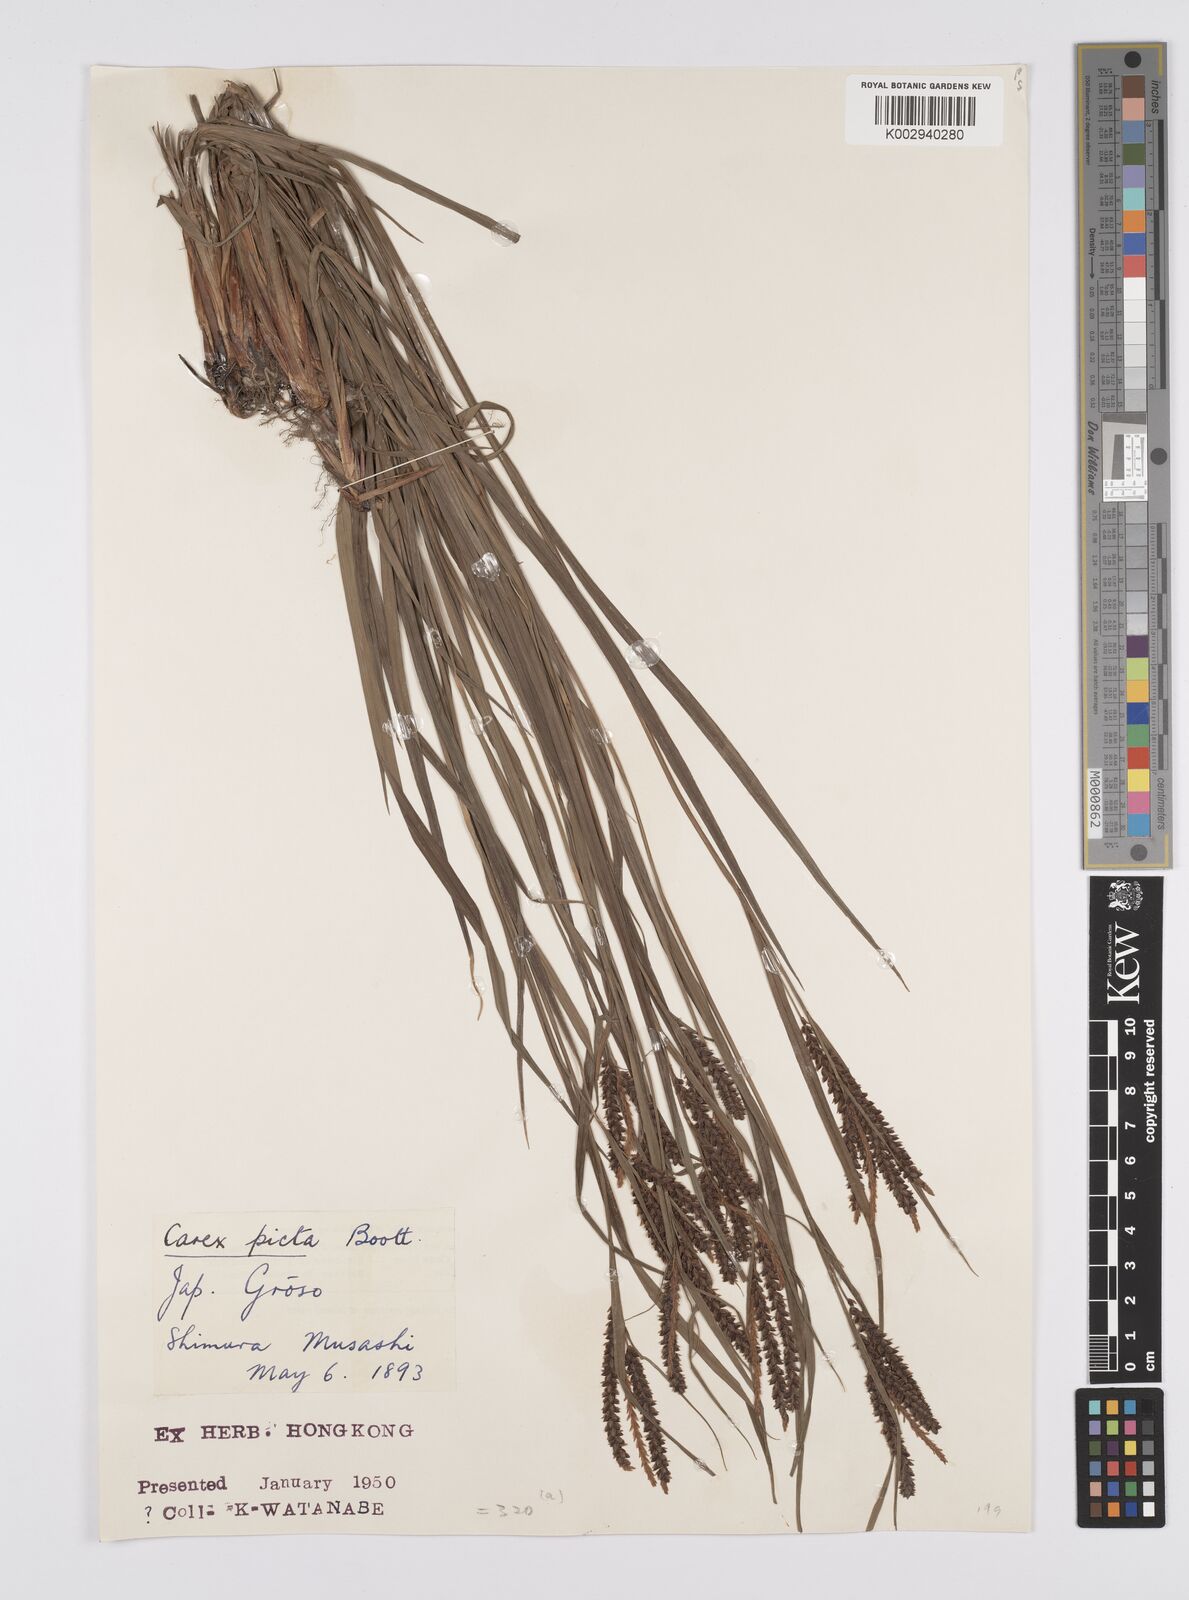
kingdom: Plantae
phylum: Tracheophyta
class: Liliopsida
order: Poales
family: Cyperaceae
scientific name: Cyperaceae
